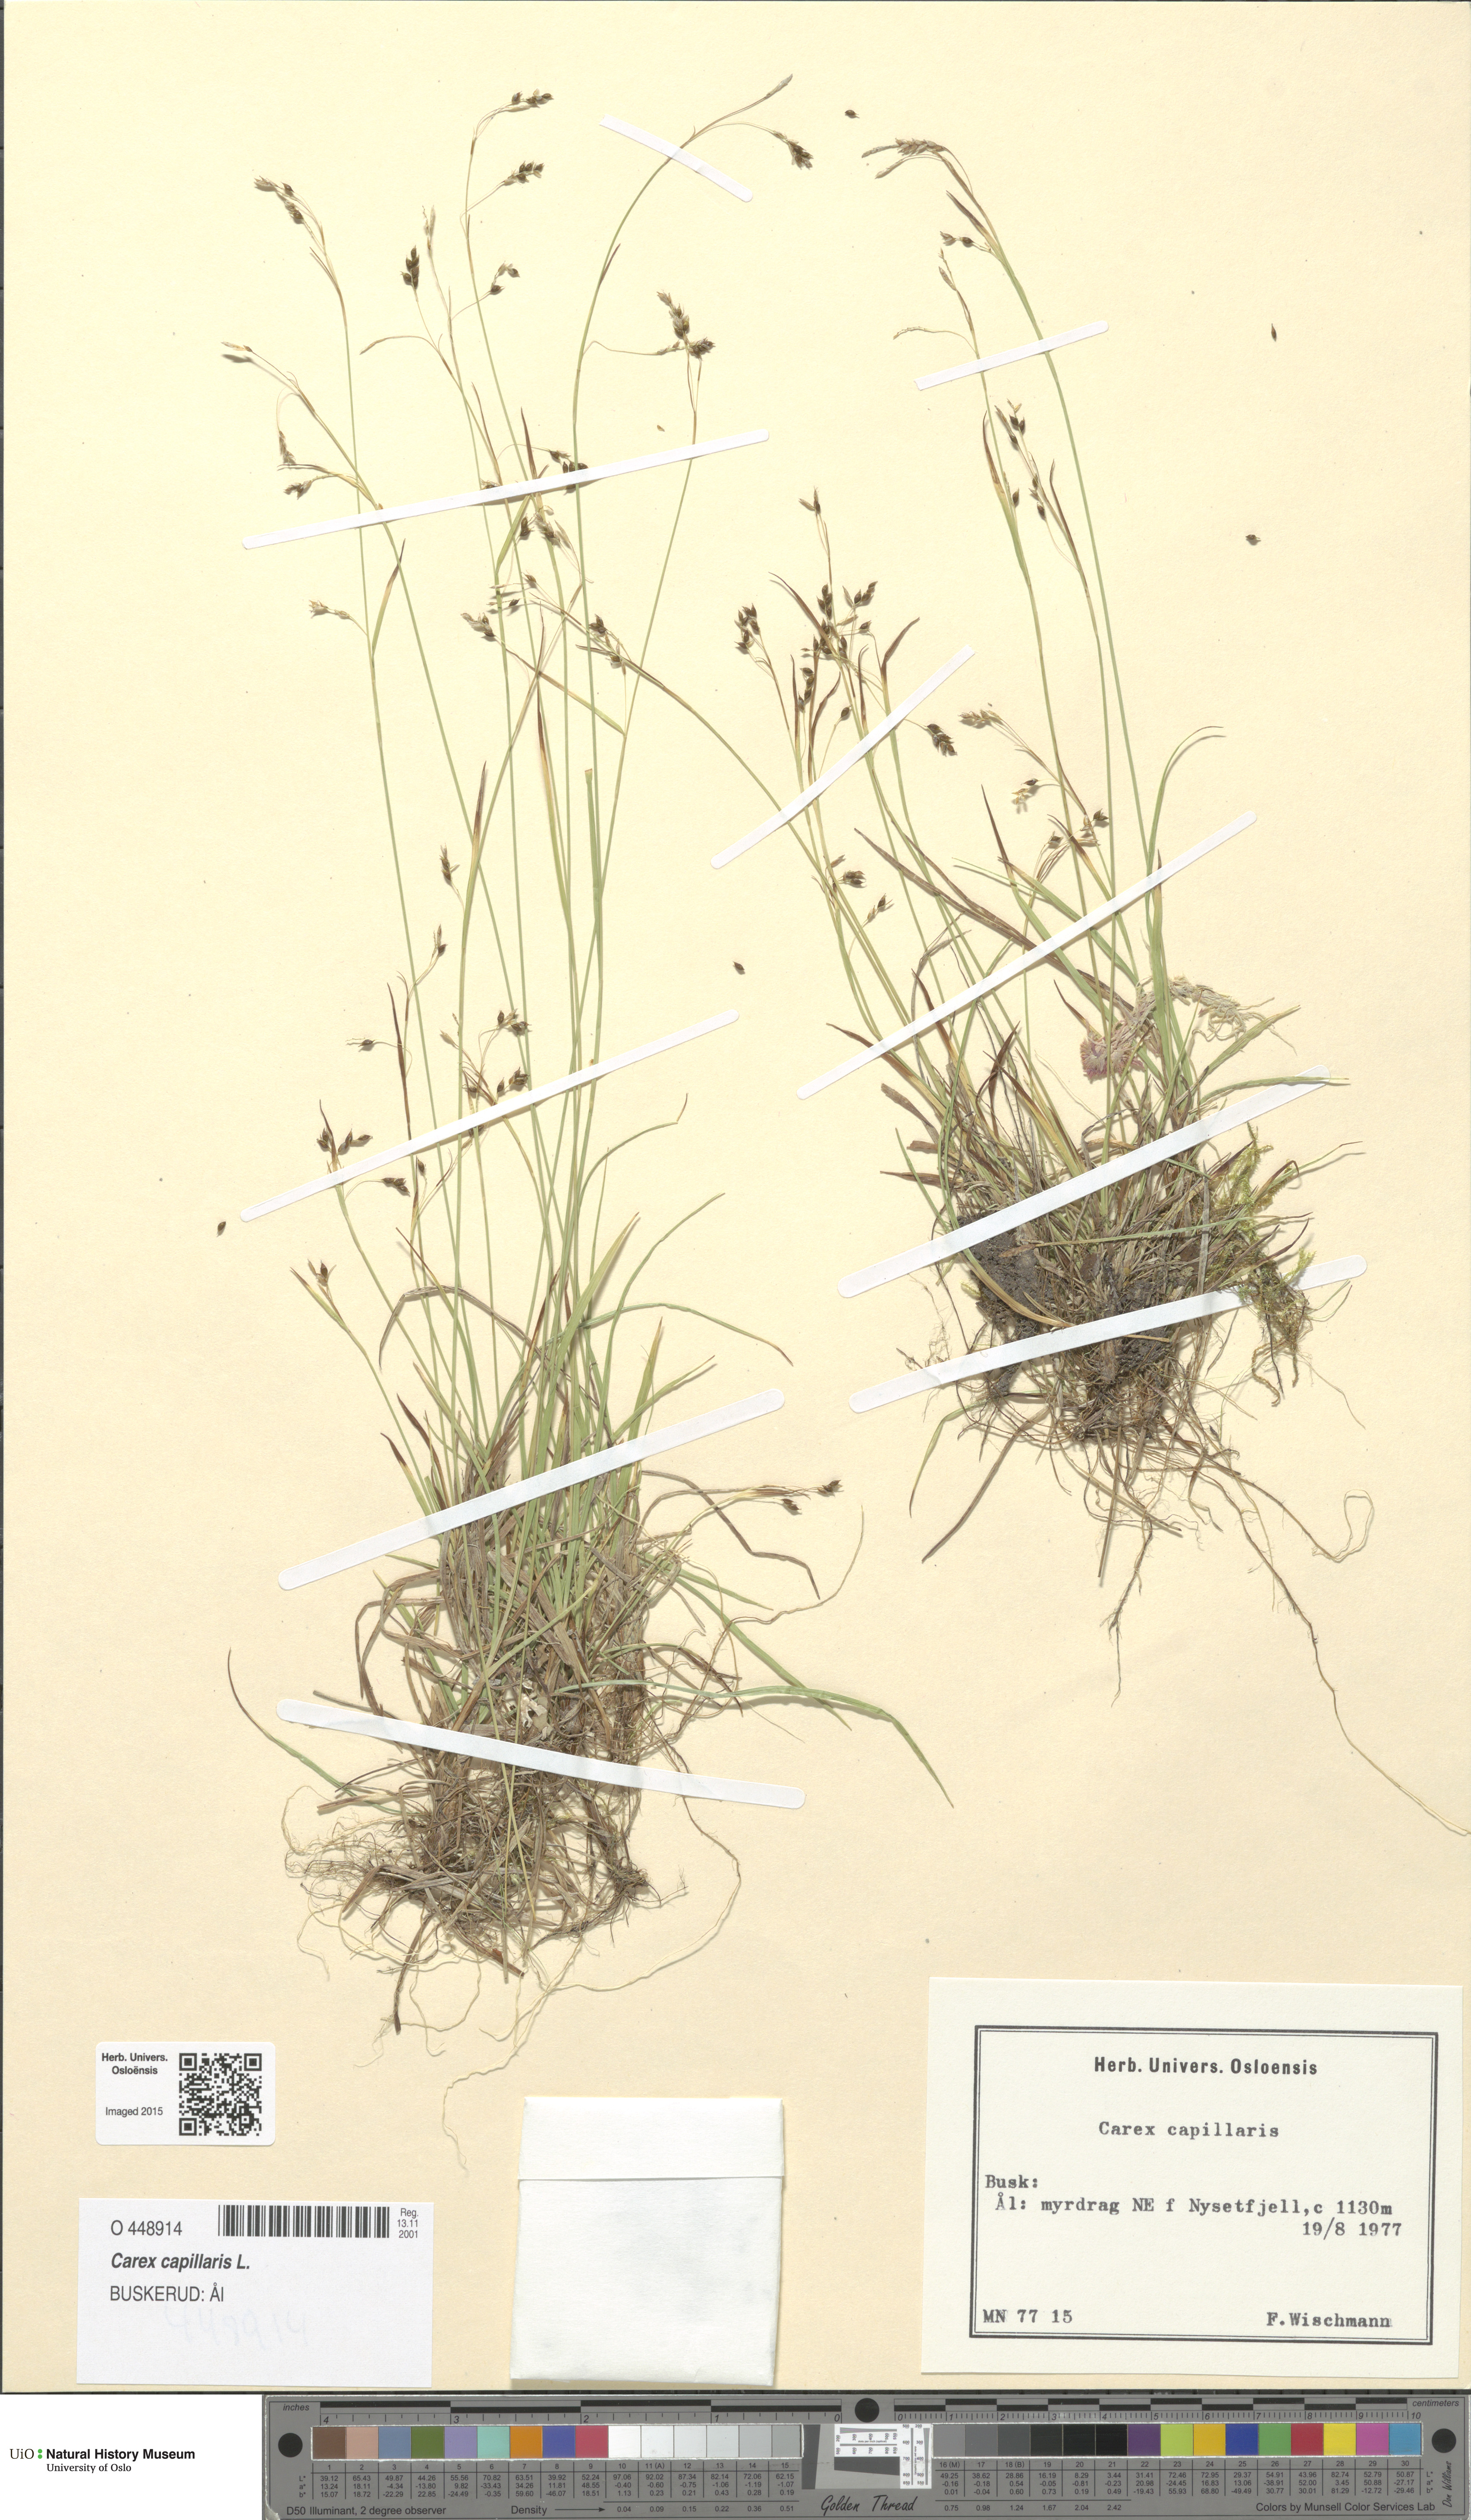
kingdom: Plantae
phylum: Tracheophyta
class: Liliopsida
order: Poales
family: Cyperaceae
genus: Carex
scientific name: Carex capillaris
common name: Hair sedge
